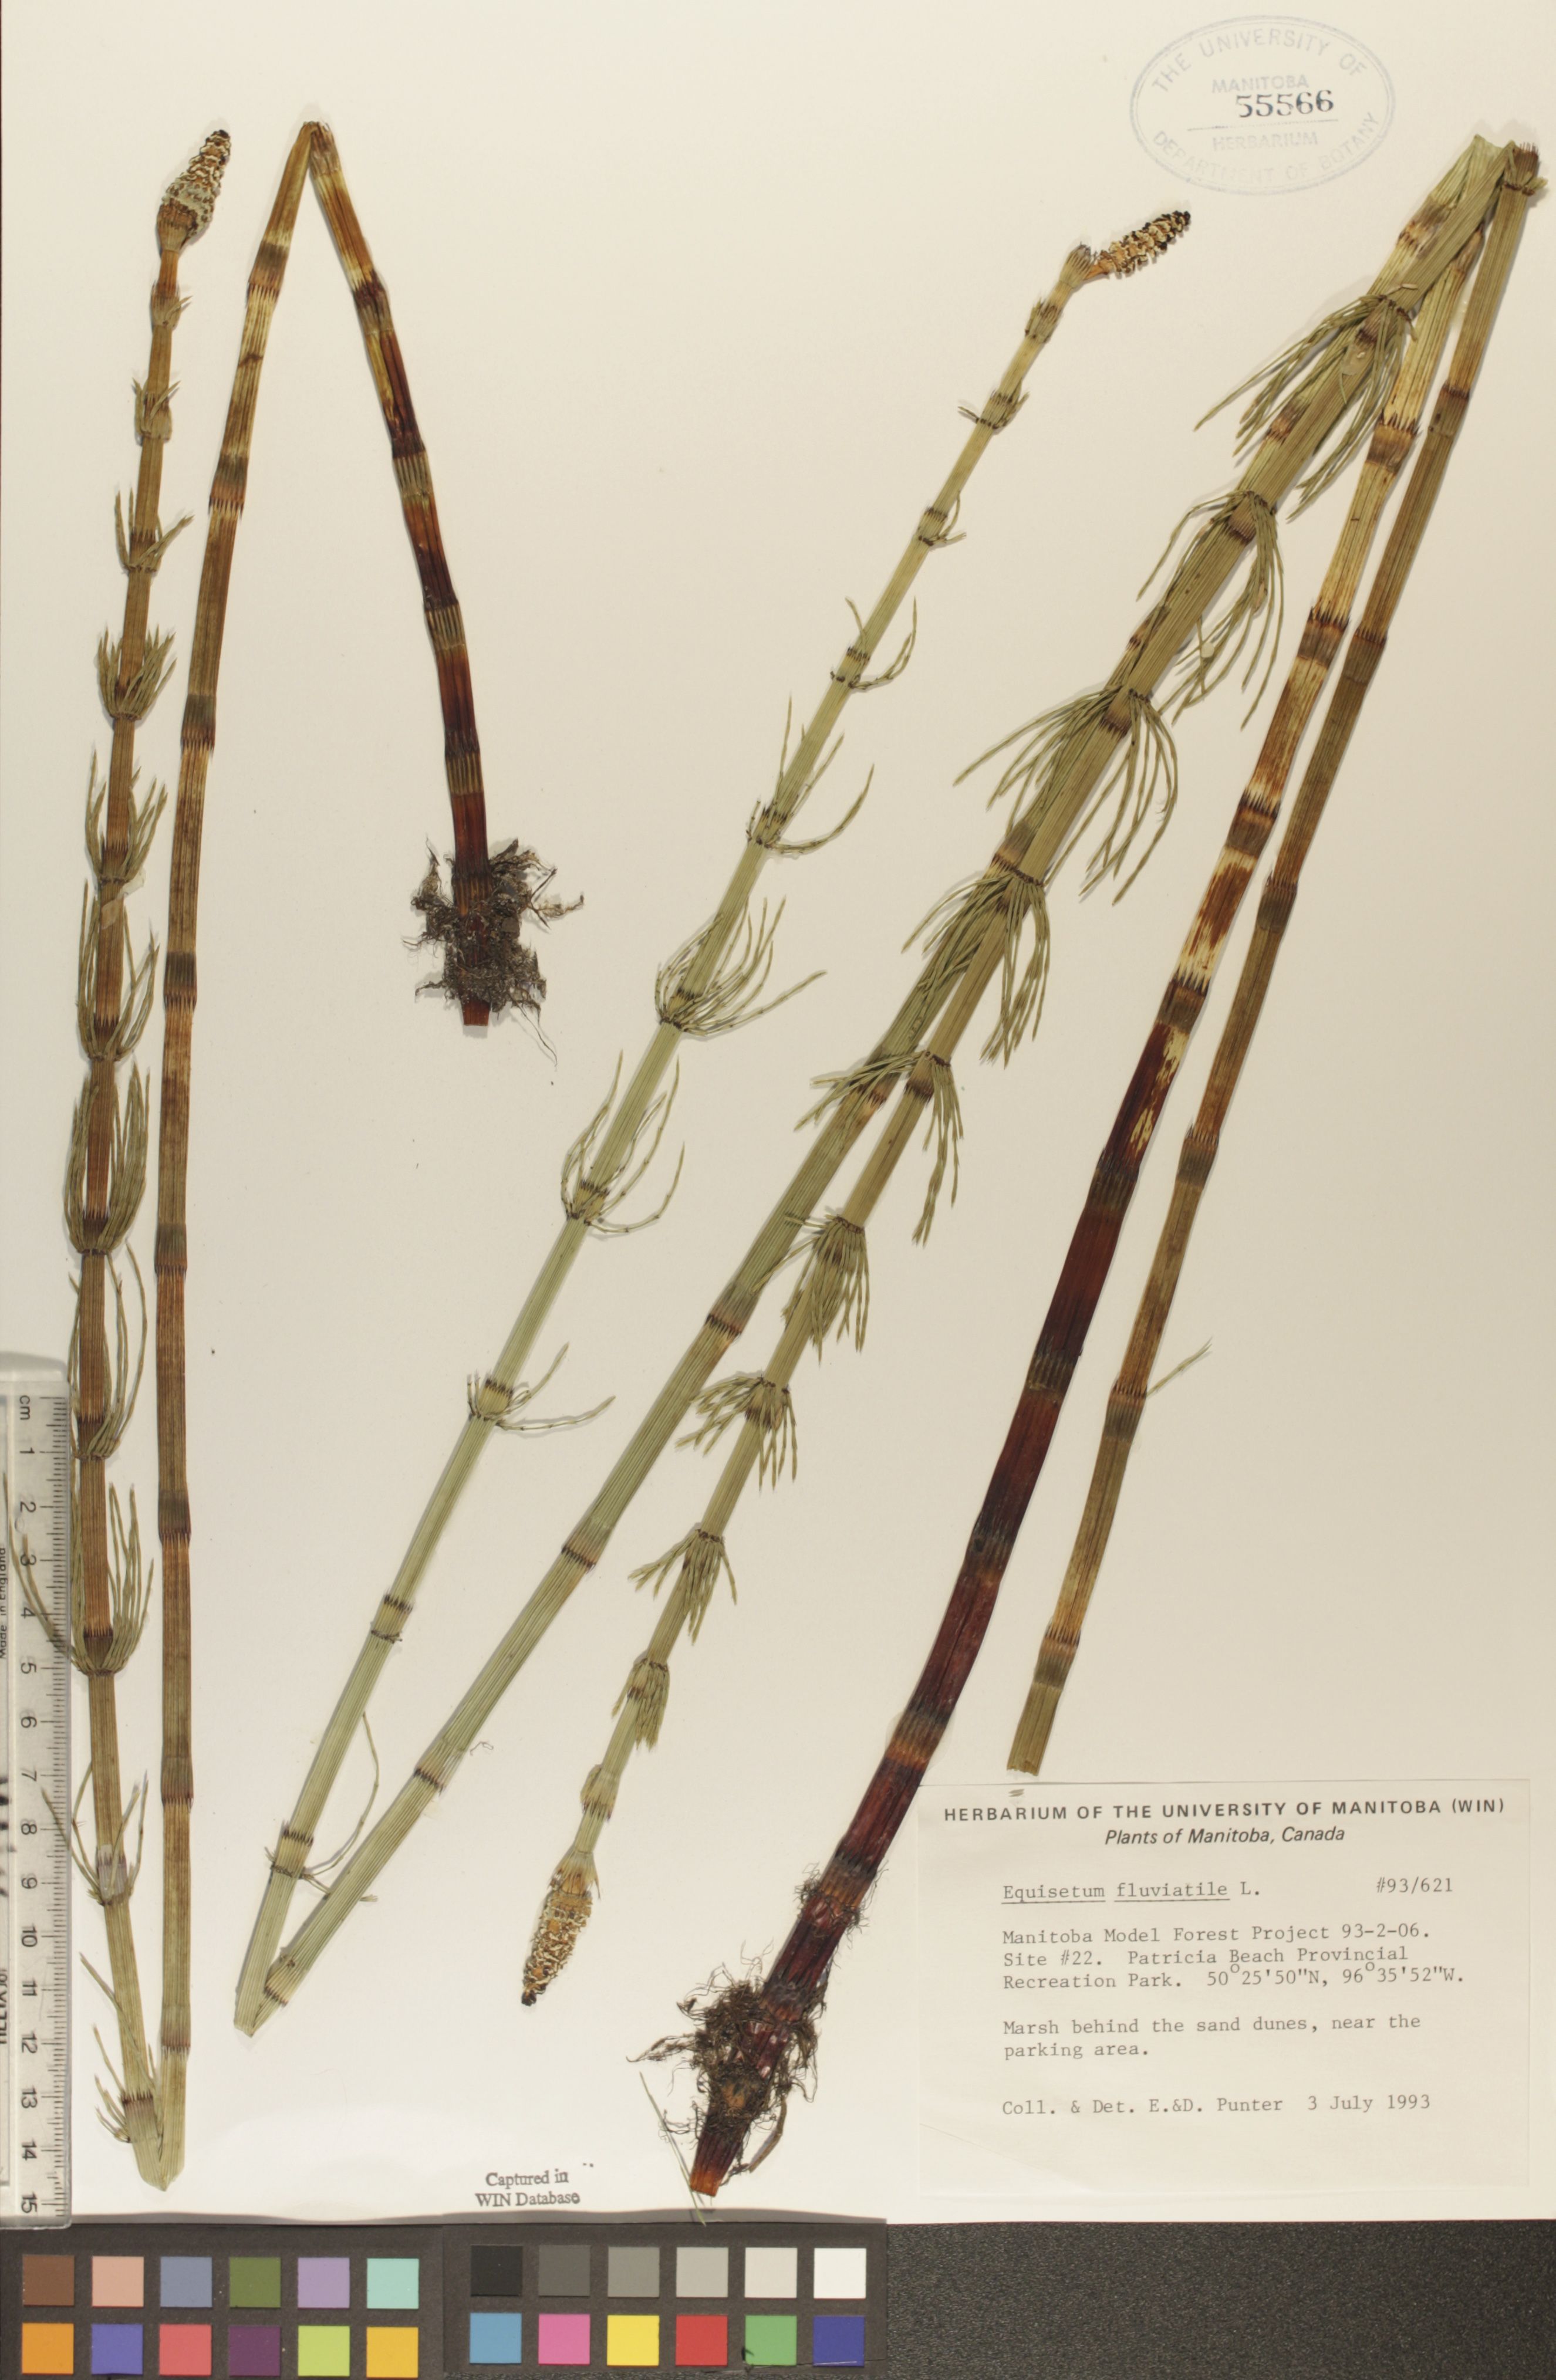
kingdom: Plantae
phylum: Tracheophyta
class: Polypodiopsida
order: Equisetales
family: Equisetaceae
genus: Equisetum
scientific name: Equisetum fluviatile
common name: Water horsetail
